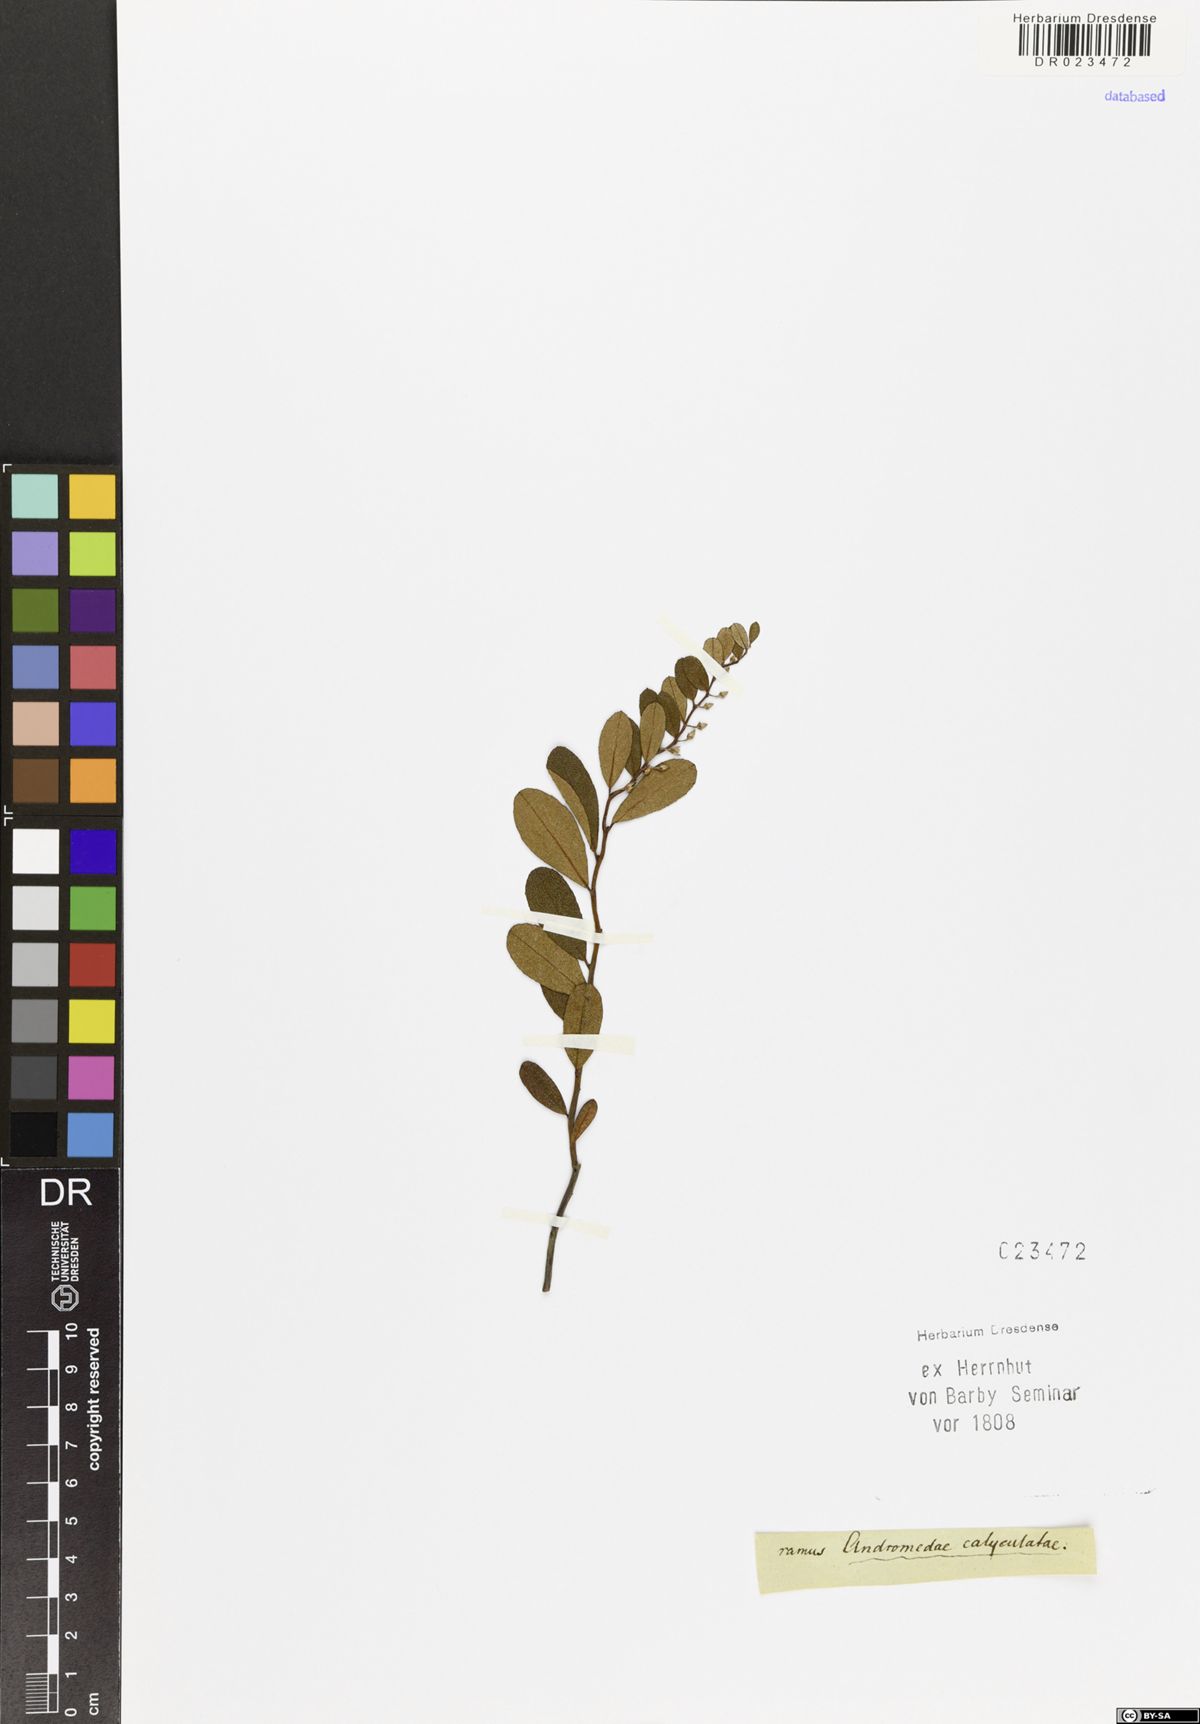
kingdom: Plantae
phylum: Tracheophyta
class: Magnoliopsida
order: Ericales
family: Ericaceae
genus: Chamaedaphne
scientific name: Chamaedaphne calyculata
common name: Leatherleaf
